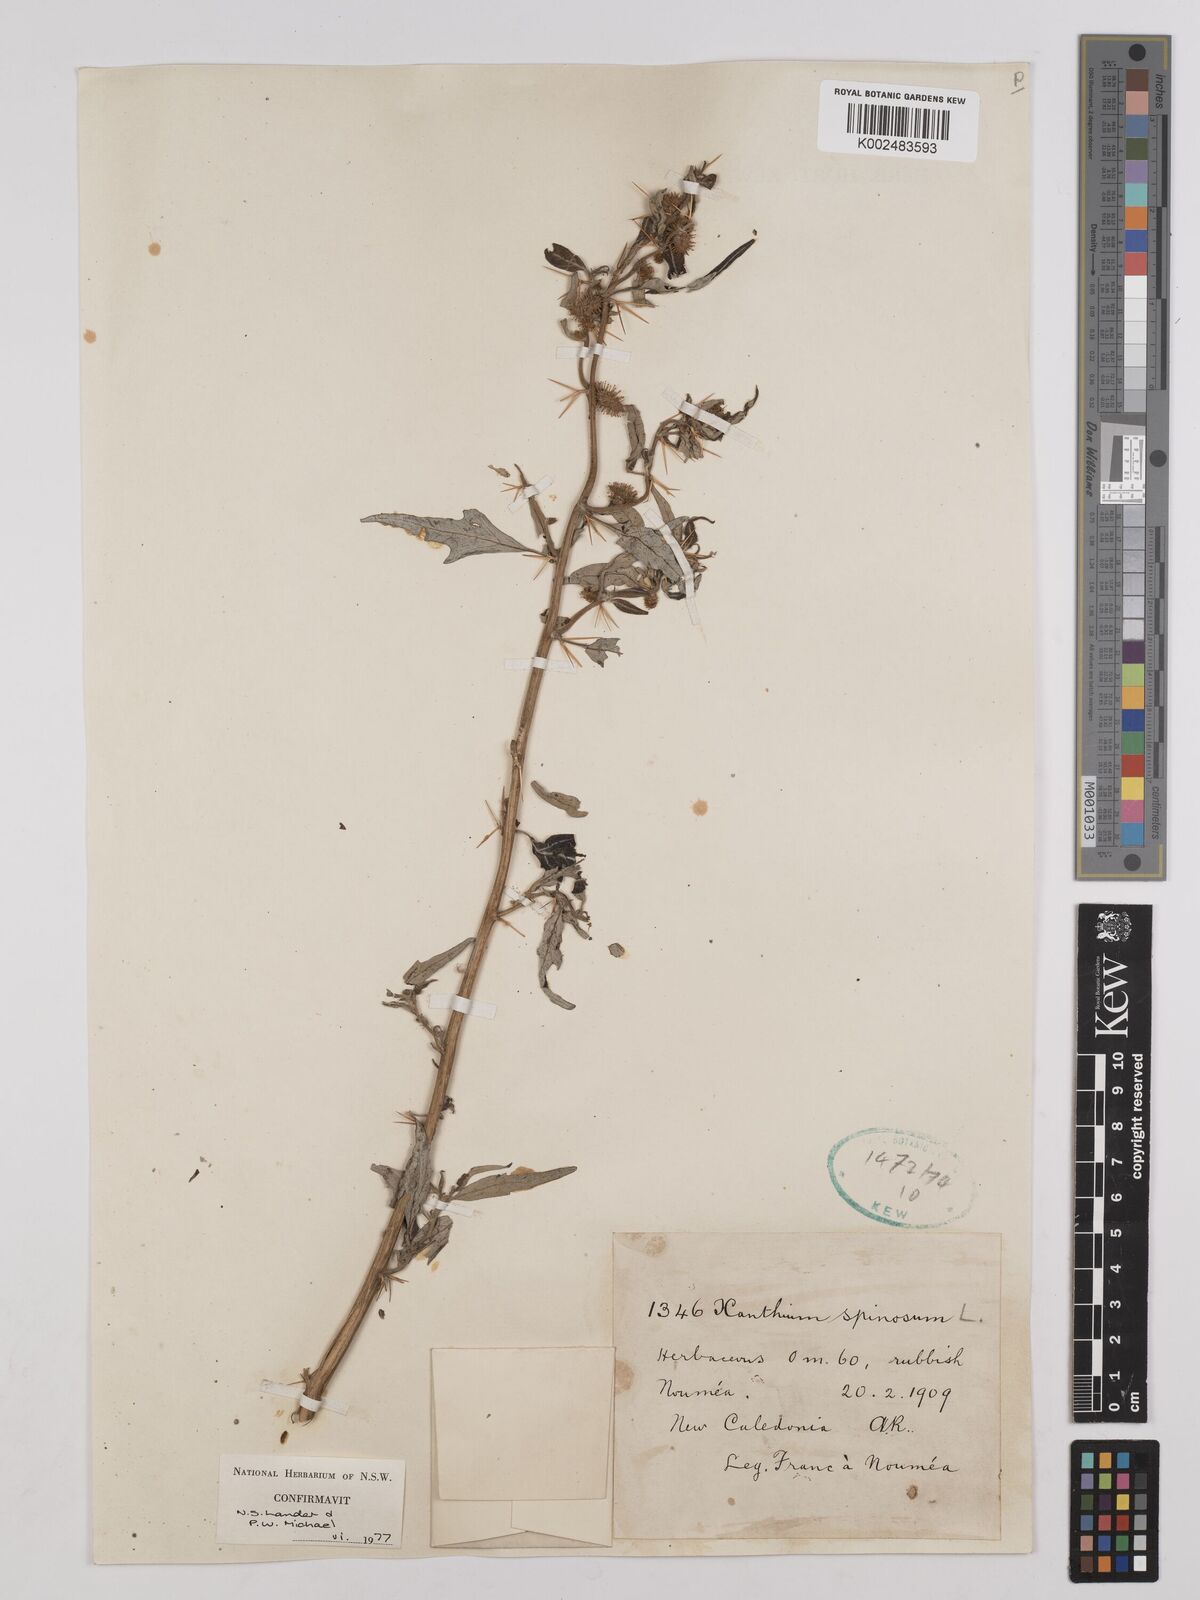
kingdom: Plantae
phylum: Tracheophyta
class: Magnoliopsida
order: Asterales
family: Asteraceae
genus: Xanthium
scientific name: Xanthium spinosum
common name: Spiny cocklebur
